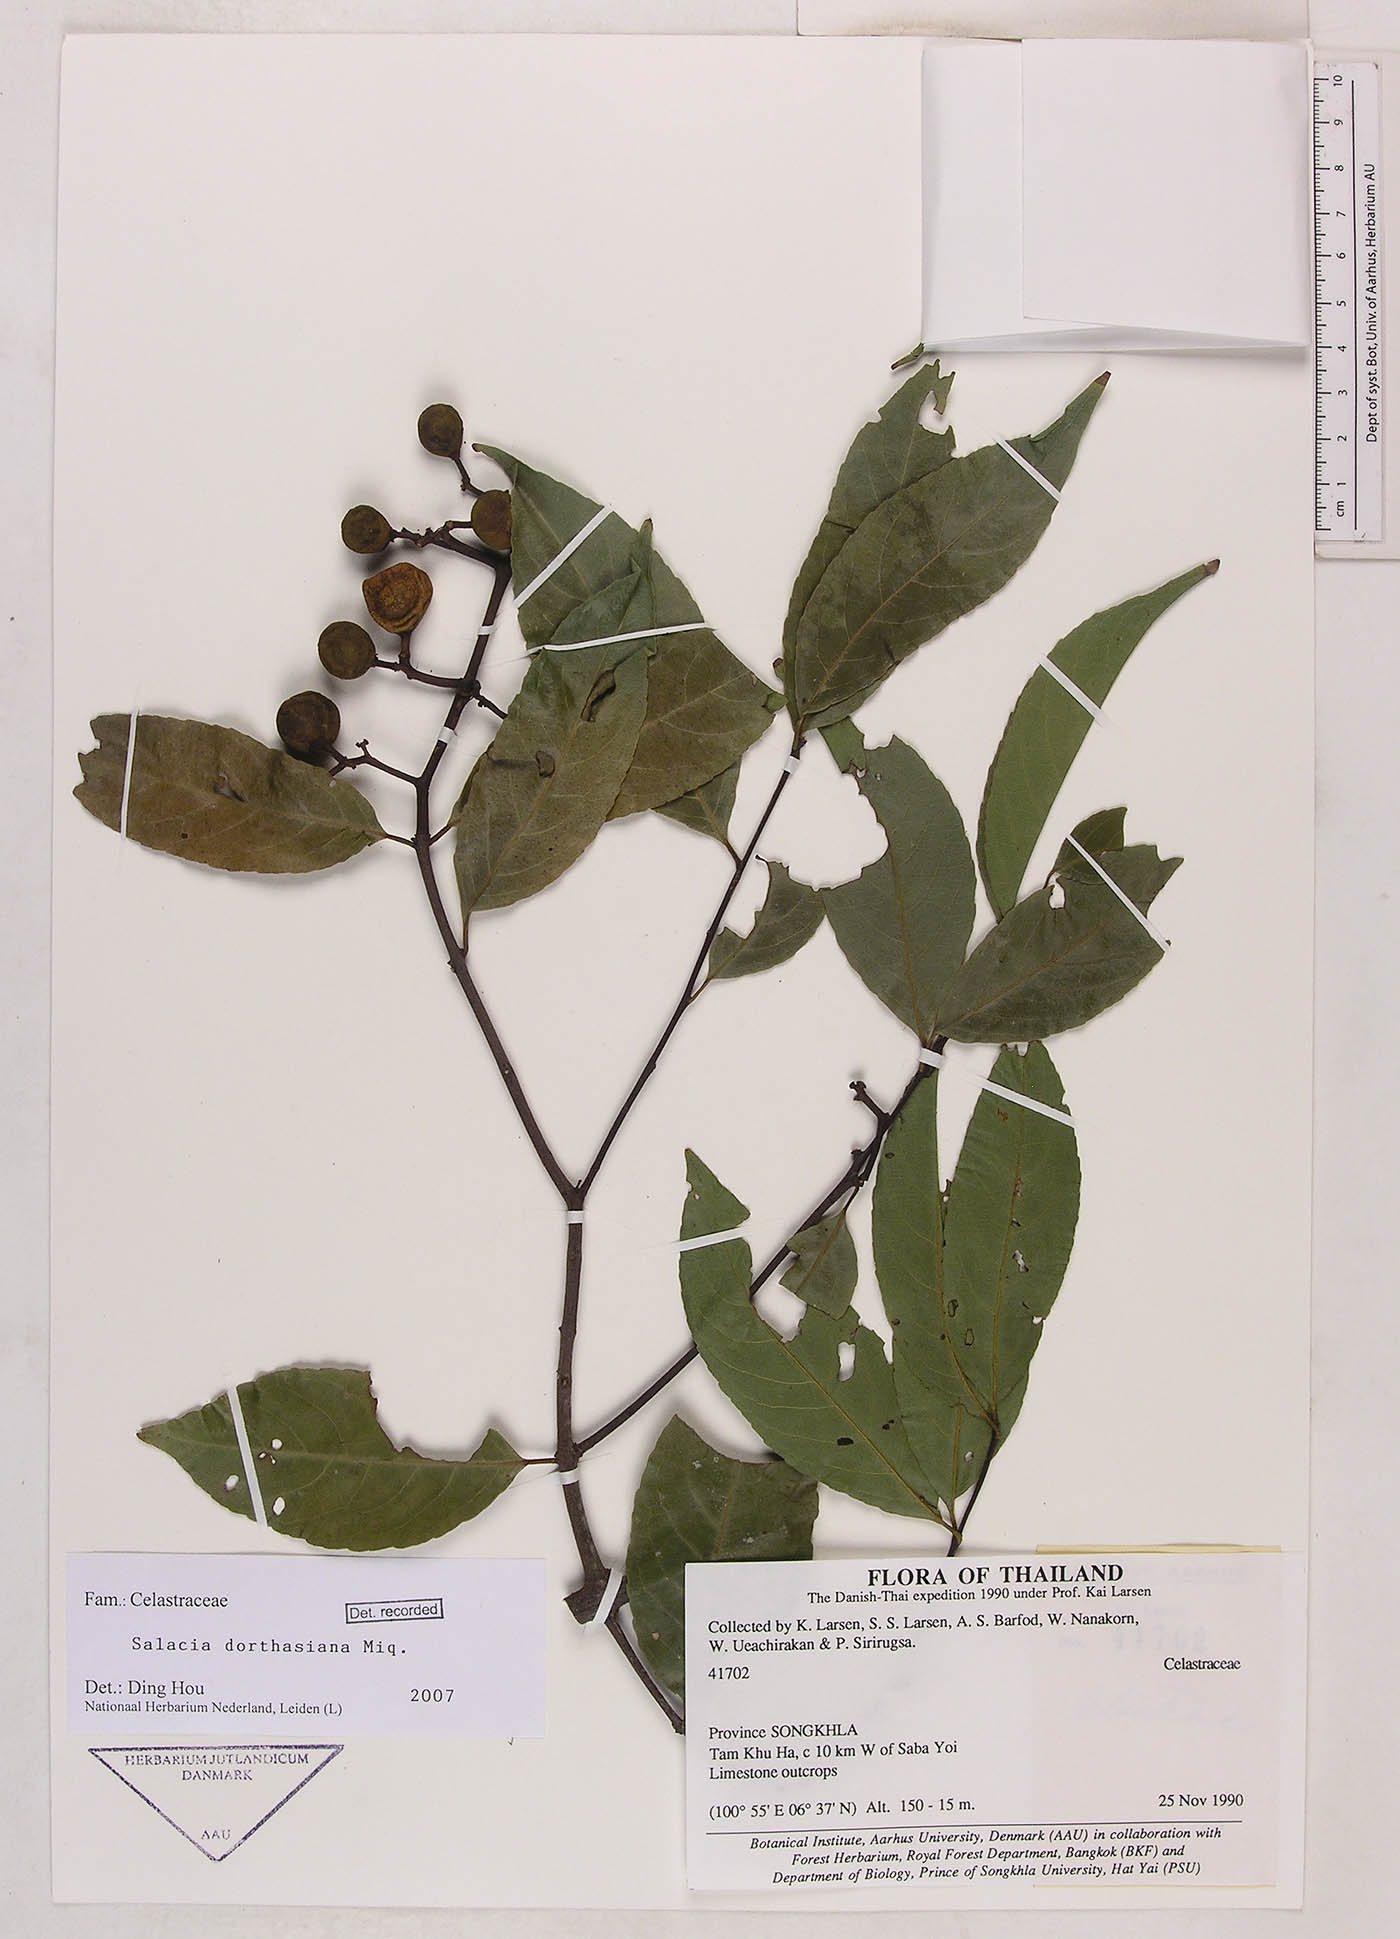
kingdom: Plantae
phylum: Tracheophyta
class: Magnoliopsida
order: Celastrales
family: Celastraceae
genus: Salacia
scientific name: Salacia
